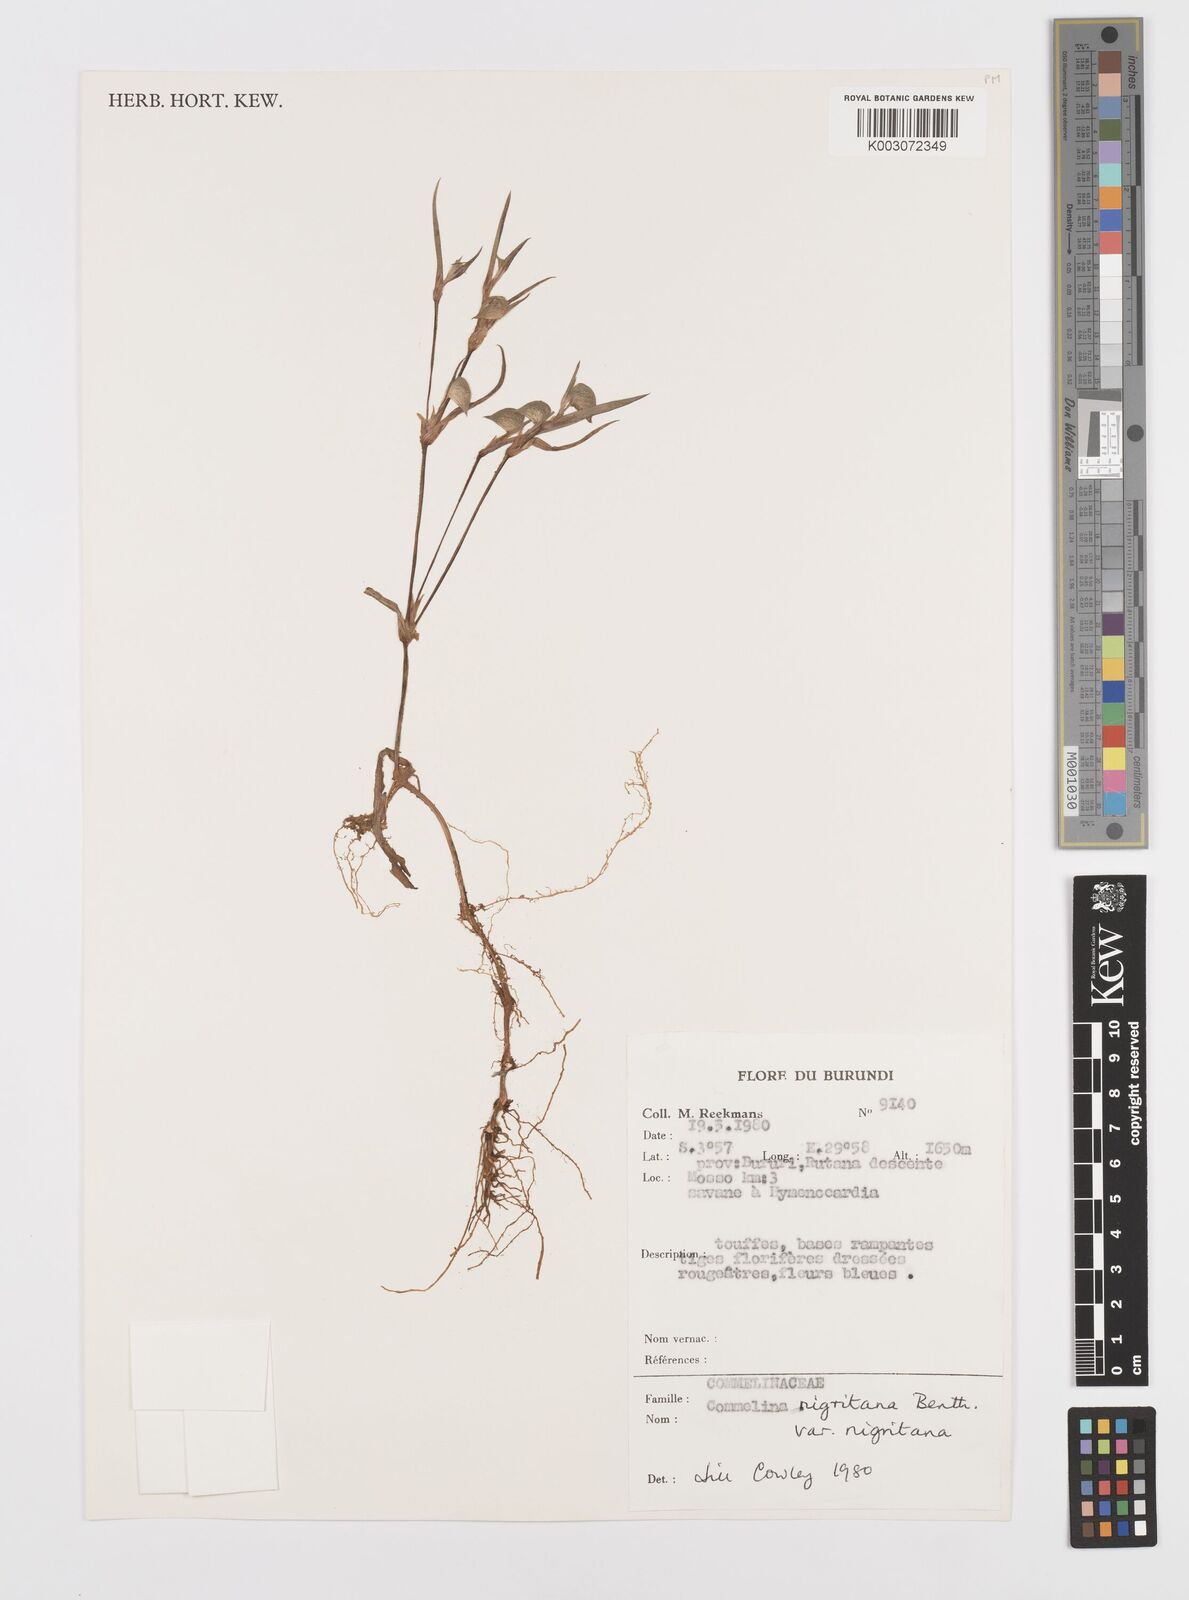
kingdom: Plantae
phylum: Tracheophyta
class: Liliopsida
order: Commelinales
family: Commelinaceae
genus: Commelina
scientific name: Commelina
